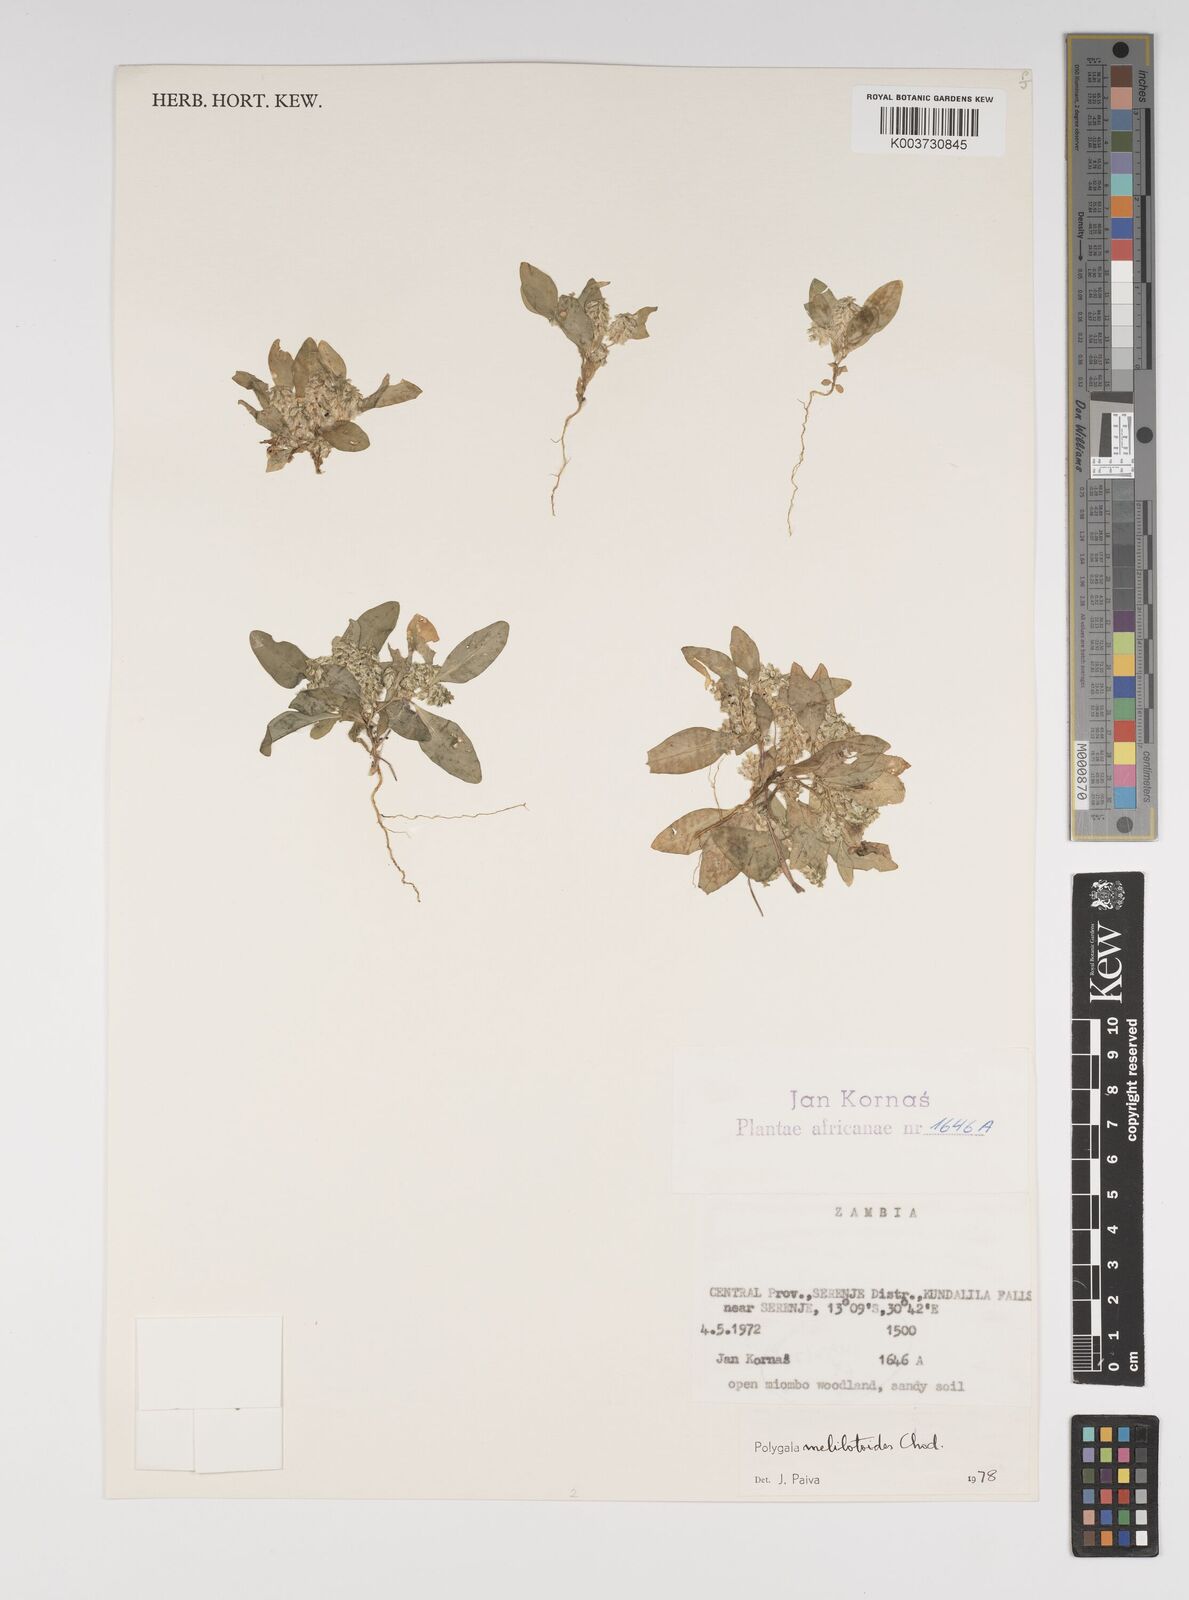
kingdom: Plantae
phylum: Tracheophyta
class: Magnoliopsida
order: Fabales
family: Polygalaceae
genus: Polygala
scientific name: Polygala melilotoides
